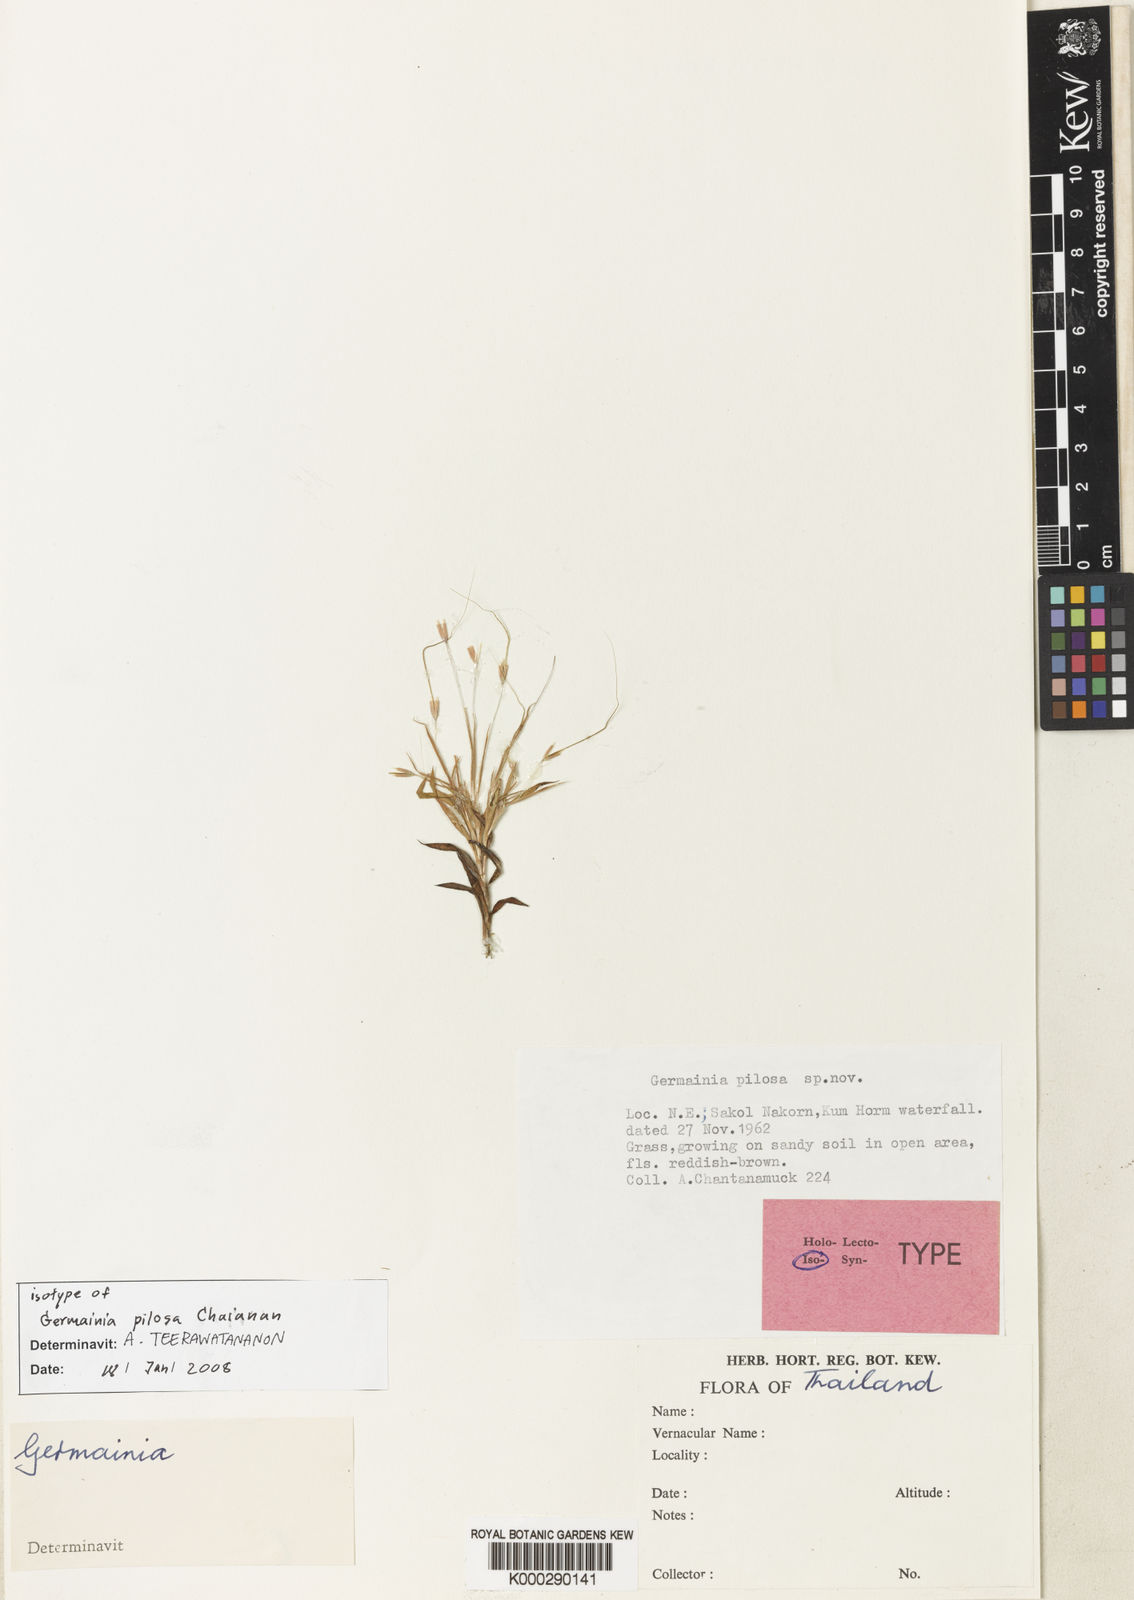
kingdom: Plantae
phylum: Tracheophyta
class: Liliopsida
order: Poales
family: Poaceae
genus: Germainia
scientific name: Germainia pilosa
